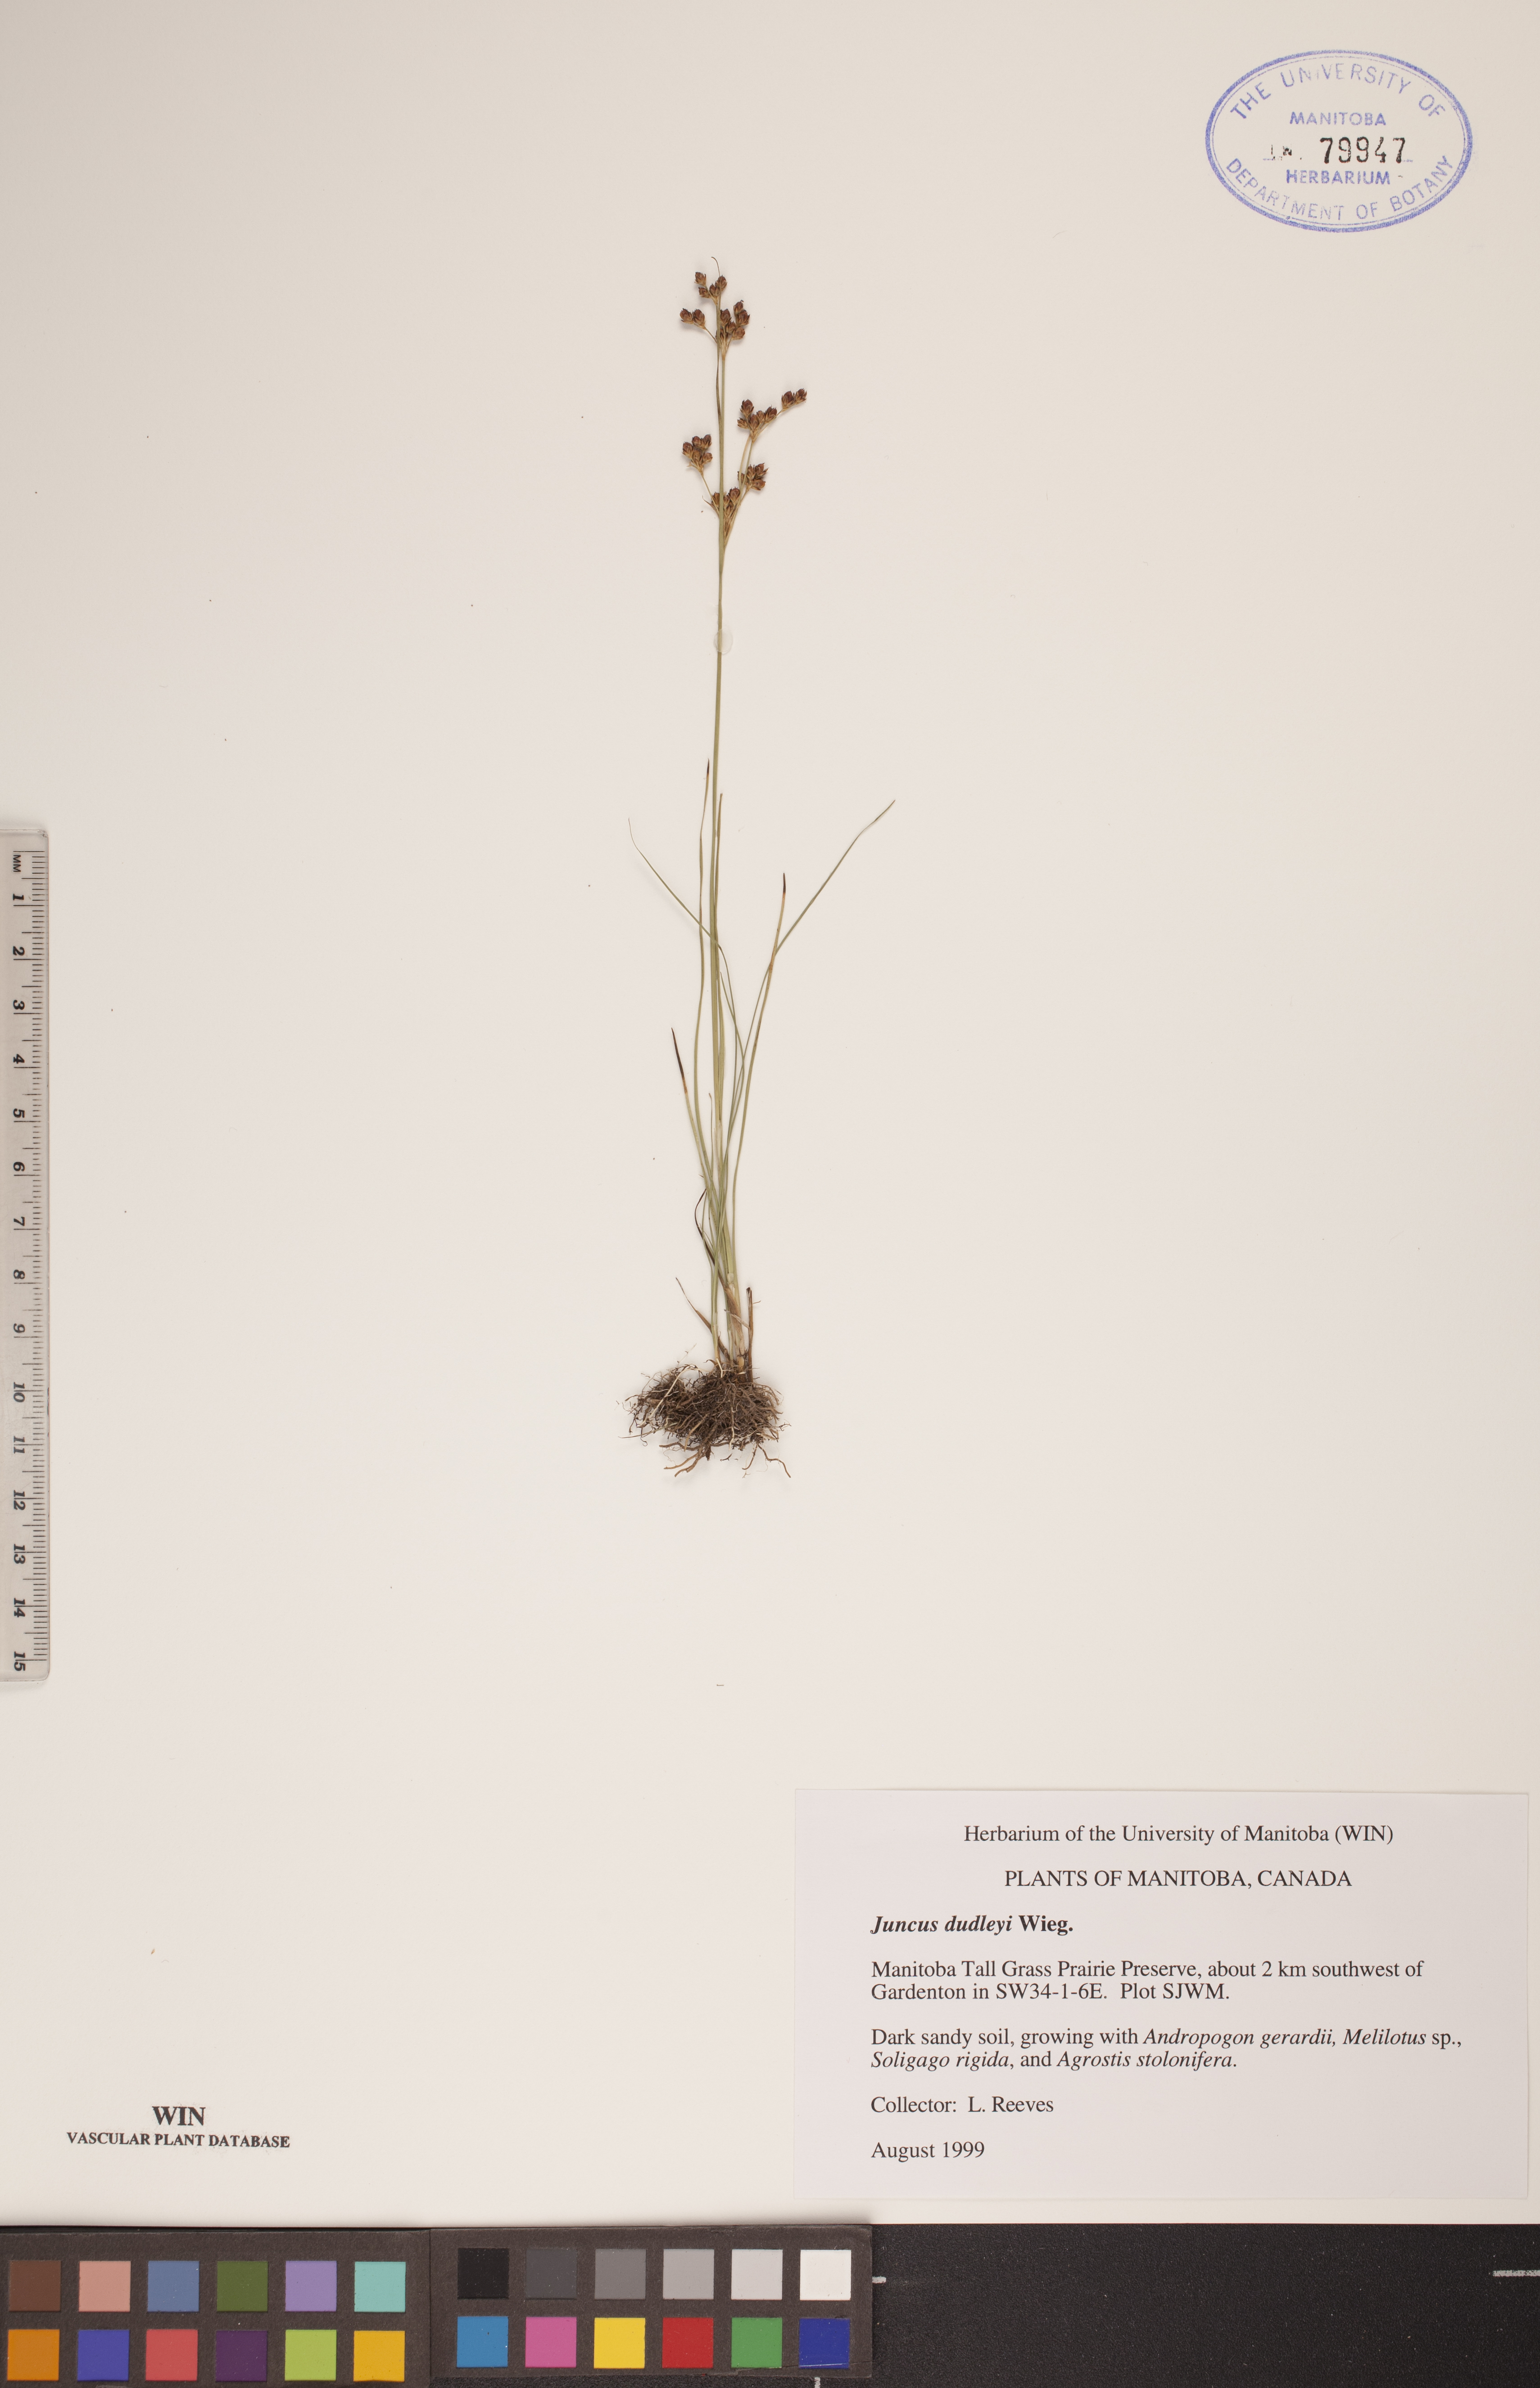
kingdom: Plantae
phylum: Tracheophyta
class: Liliopsida
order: Poales
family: Juncaceae
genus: Juncus
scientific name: Juncus dudleyi
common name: Dudley's rush
